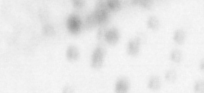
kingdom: Animalia
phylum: Chordata
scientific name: Chordata
